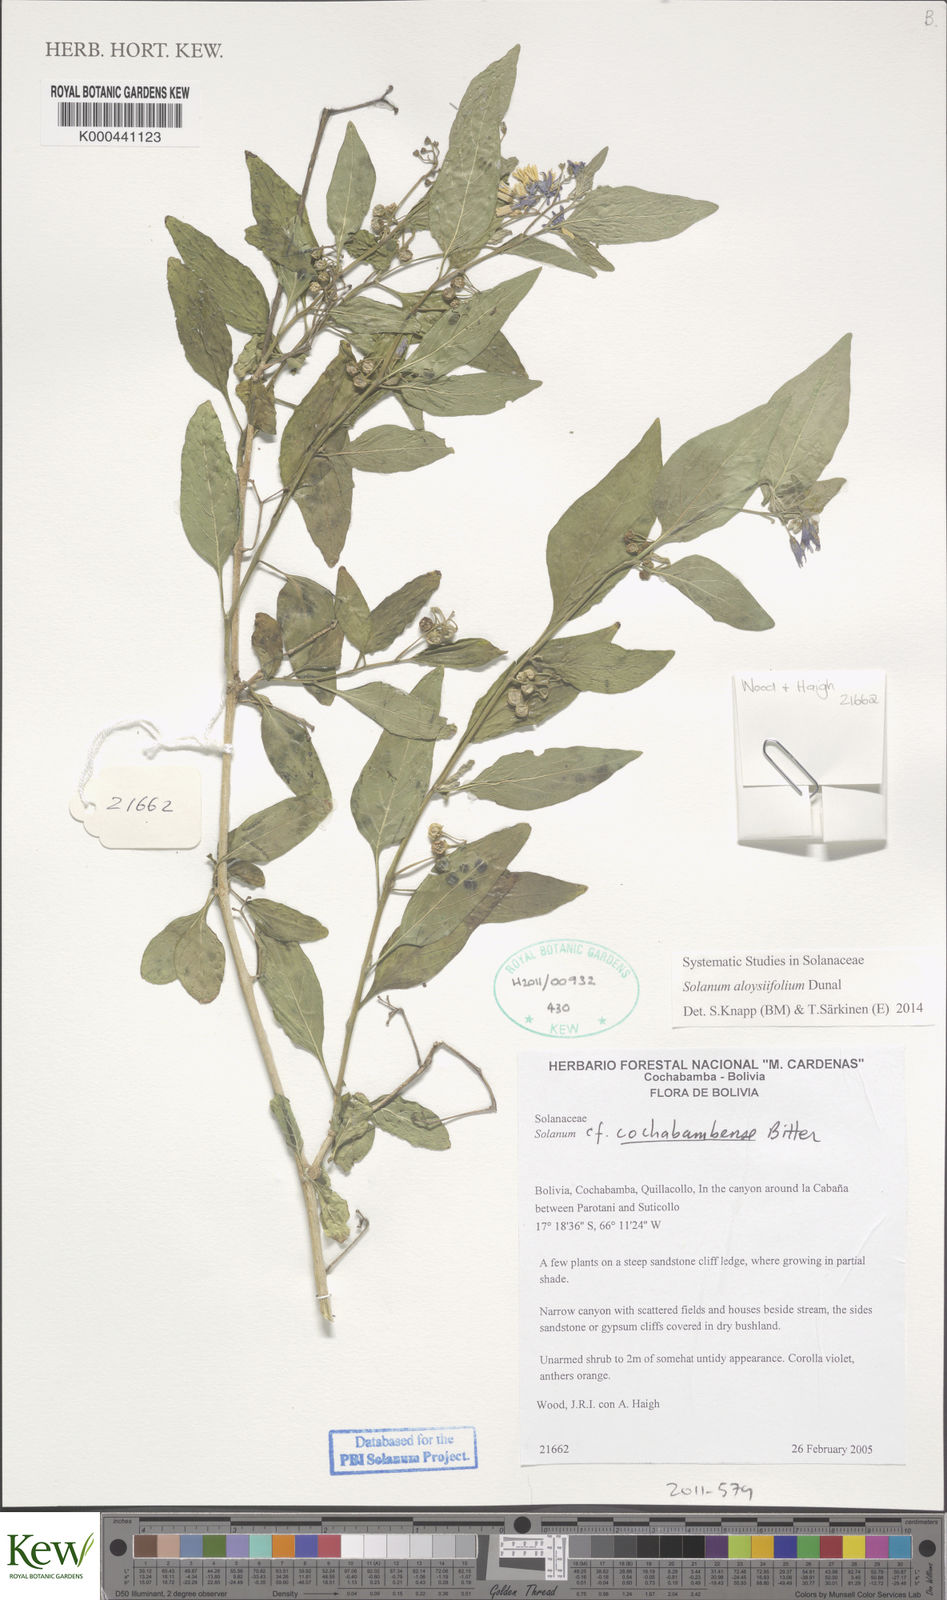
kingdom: Plantae
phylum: Tracheophyta
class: Magnoliopsida
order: Solanales
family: Solanaceae
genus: Solanum
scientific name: Solanum aloysiifolium
